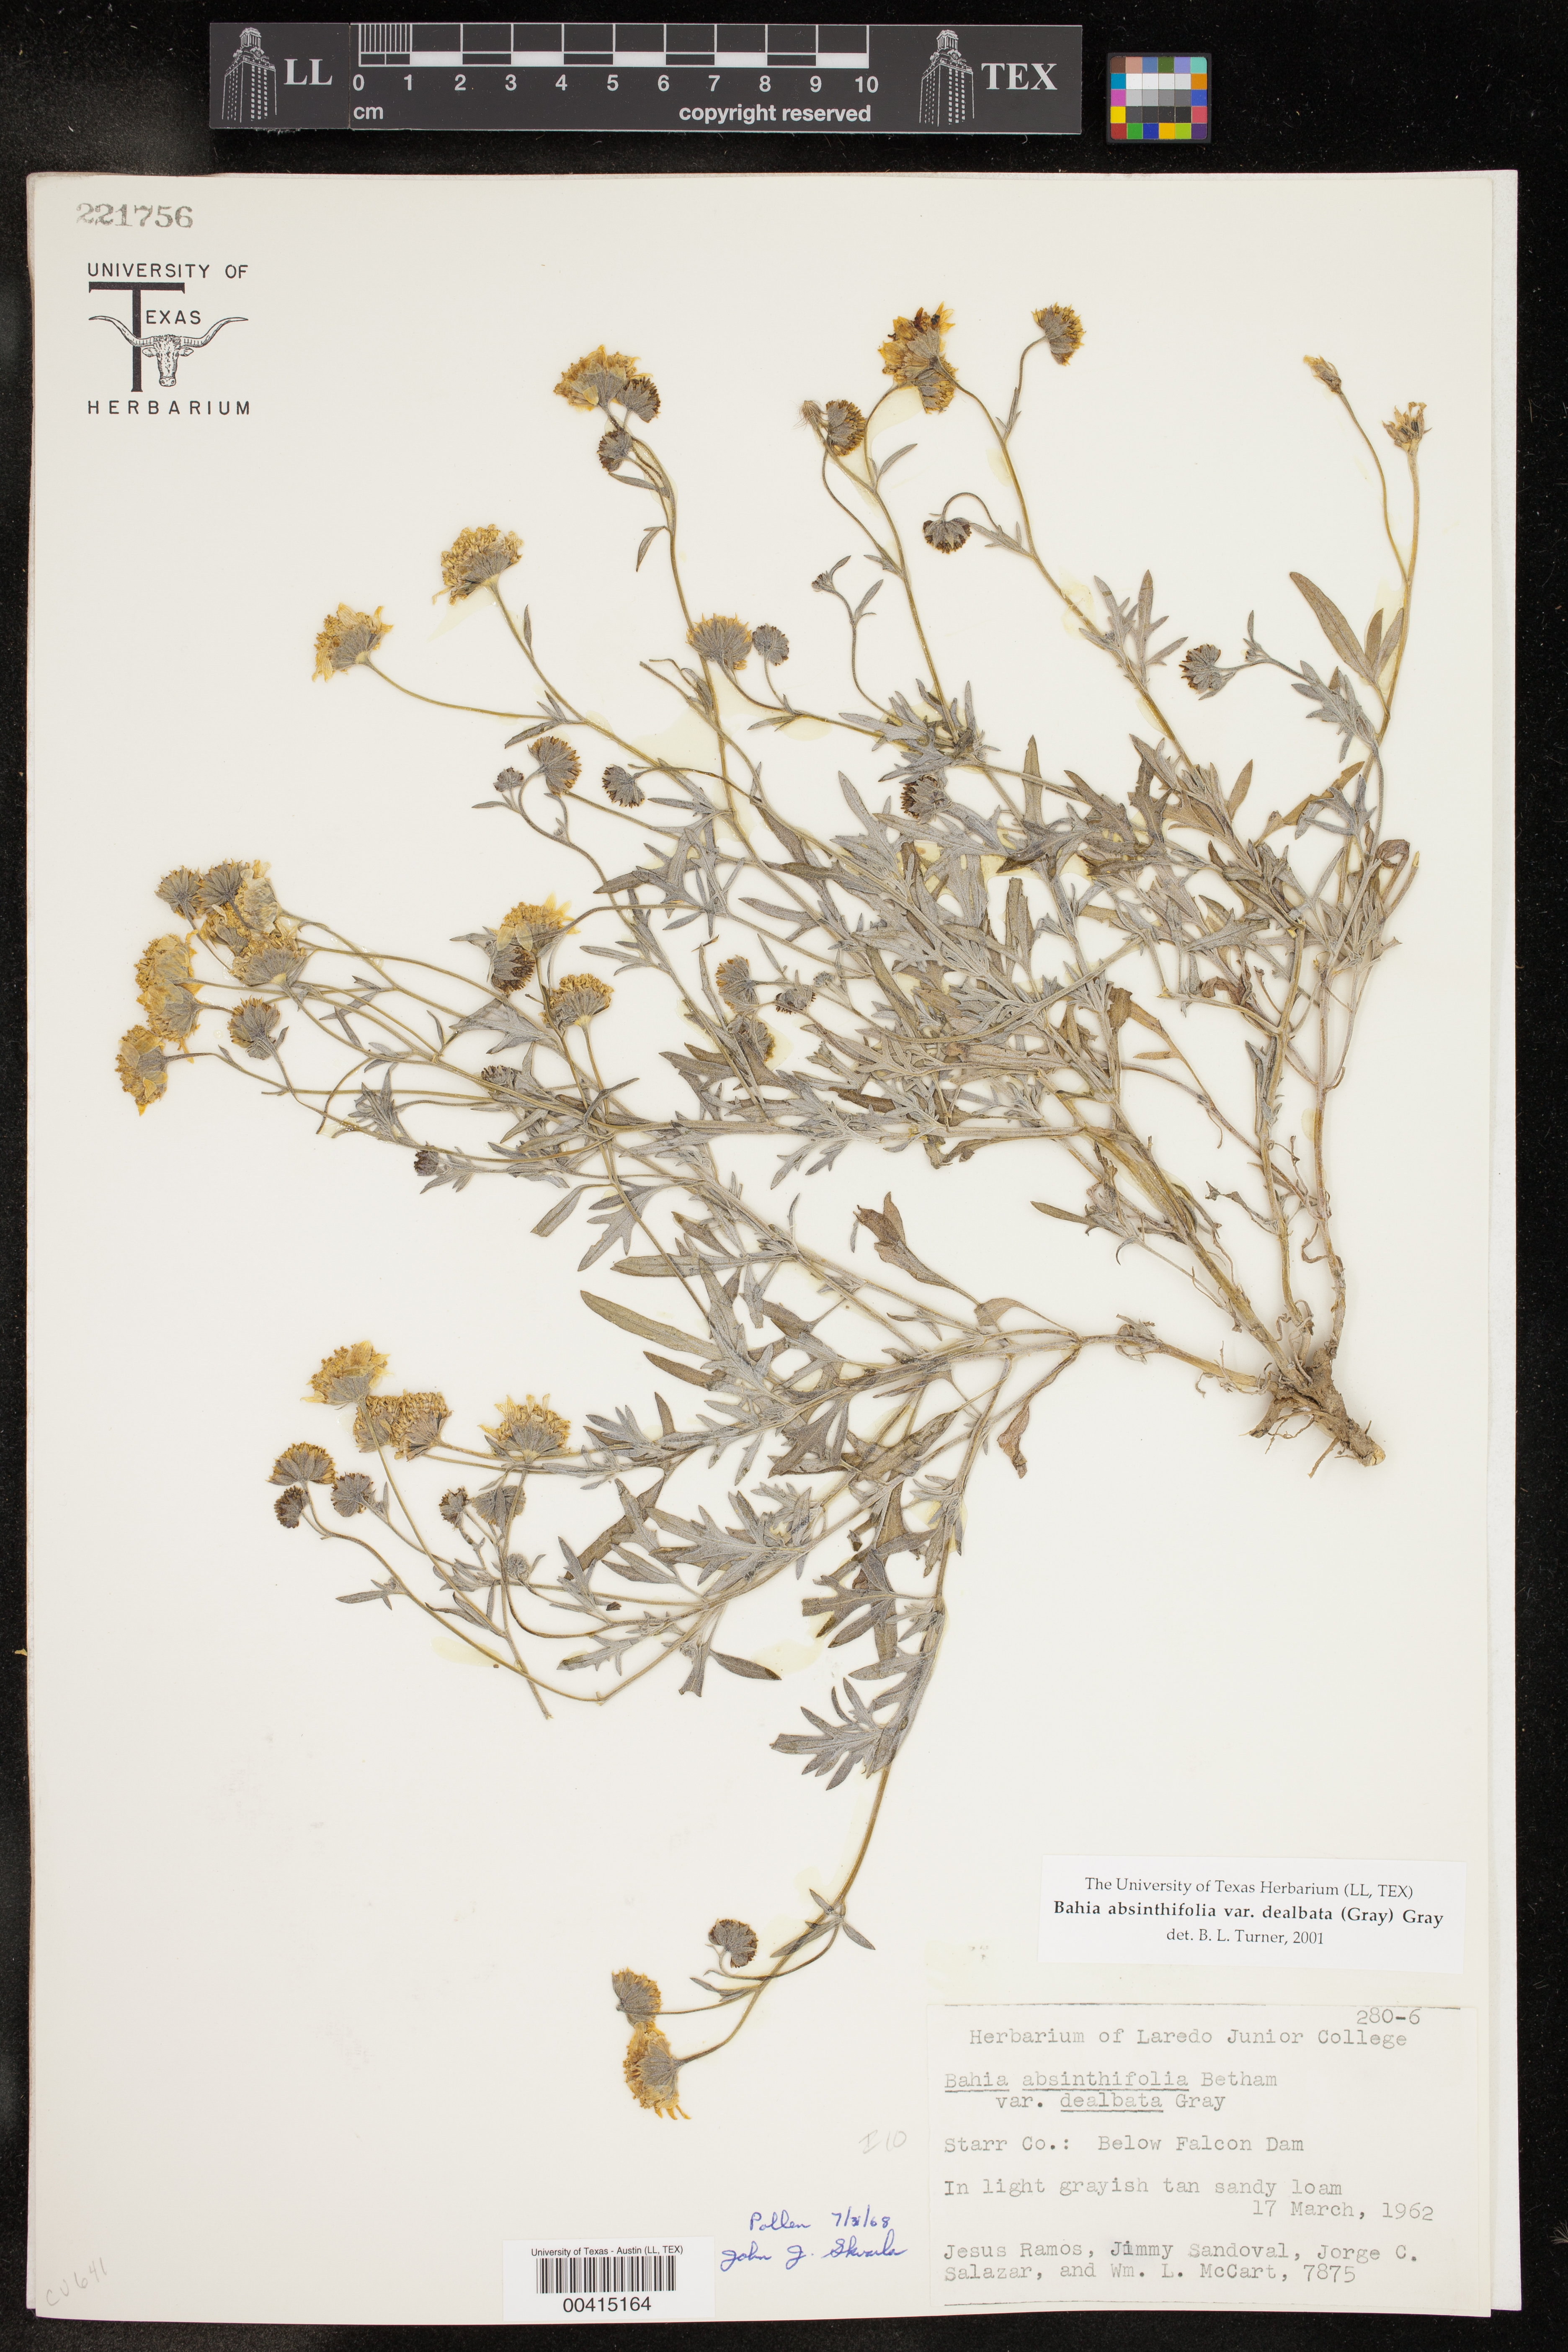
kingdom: Plantae
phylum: Tracheophyta
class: Magnoliopsida
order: Asterales
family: Asteraceae
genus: Picradeniopsis
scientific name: Picradeniopsis absinthifolia
